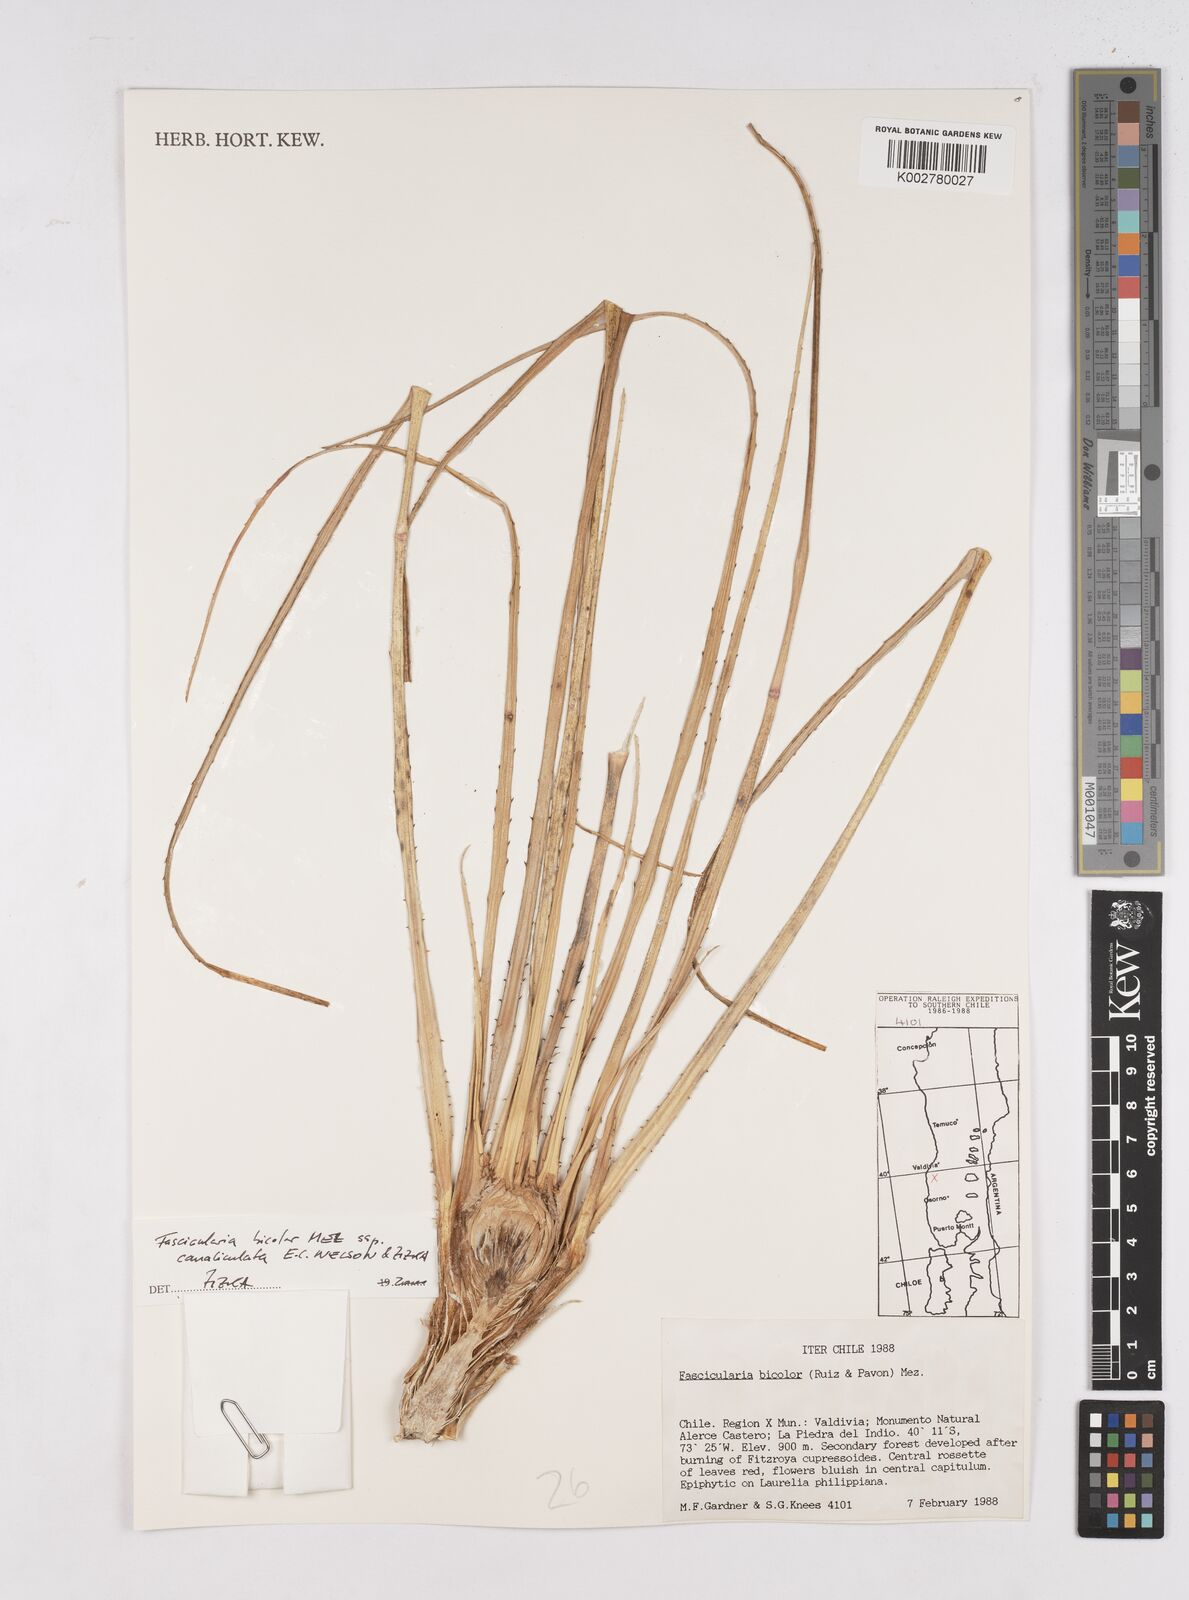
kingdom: Plantae
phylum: Tracheophyta
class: Liliopsida
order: Poales
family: Bromeliaceae
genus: Fascicularia
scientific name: Fascicularia bicolor
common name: Rhodostachys
